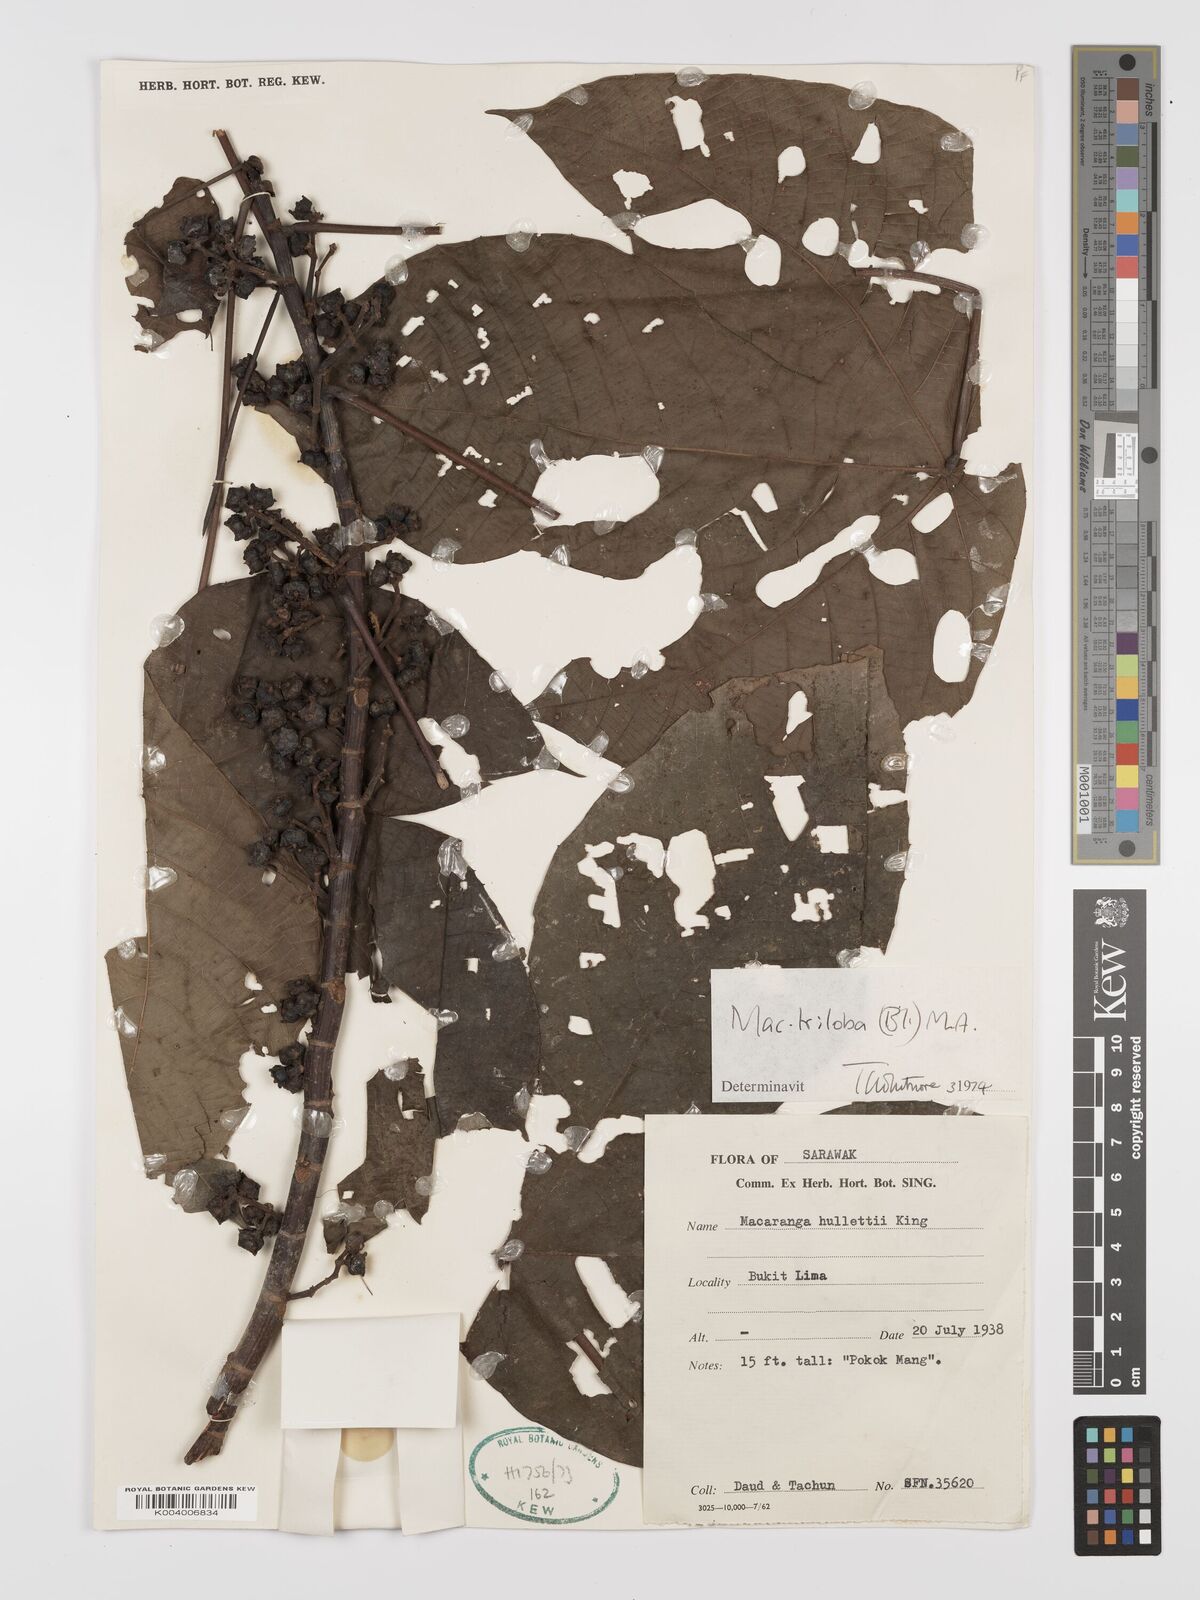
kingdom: Plantae
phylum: Tracheophyta
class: Magnoliopsida
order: Malpighiales
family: Euphorbiaceae
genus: Macaranga
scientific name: Macaranga triloba
